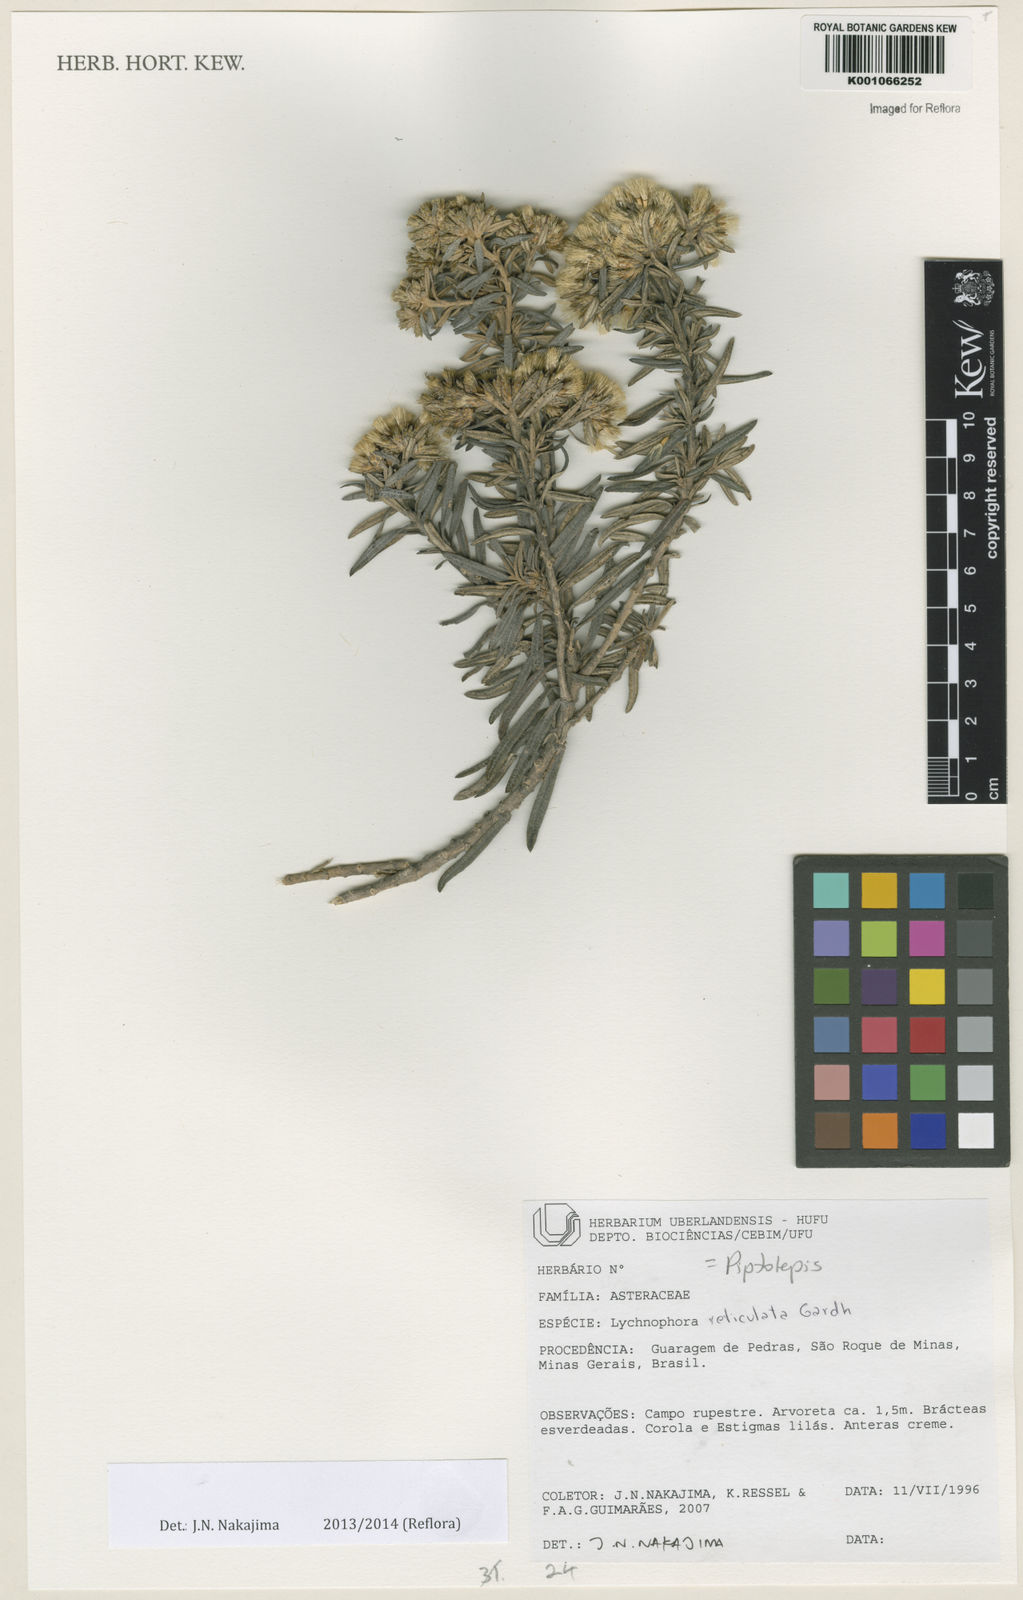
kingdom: Plantae
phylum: Tracheophyta
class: Magnoliopsida
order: Asterales
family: Asteraceae
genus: Eremanthus
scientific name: Eremanthus reticulatus
